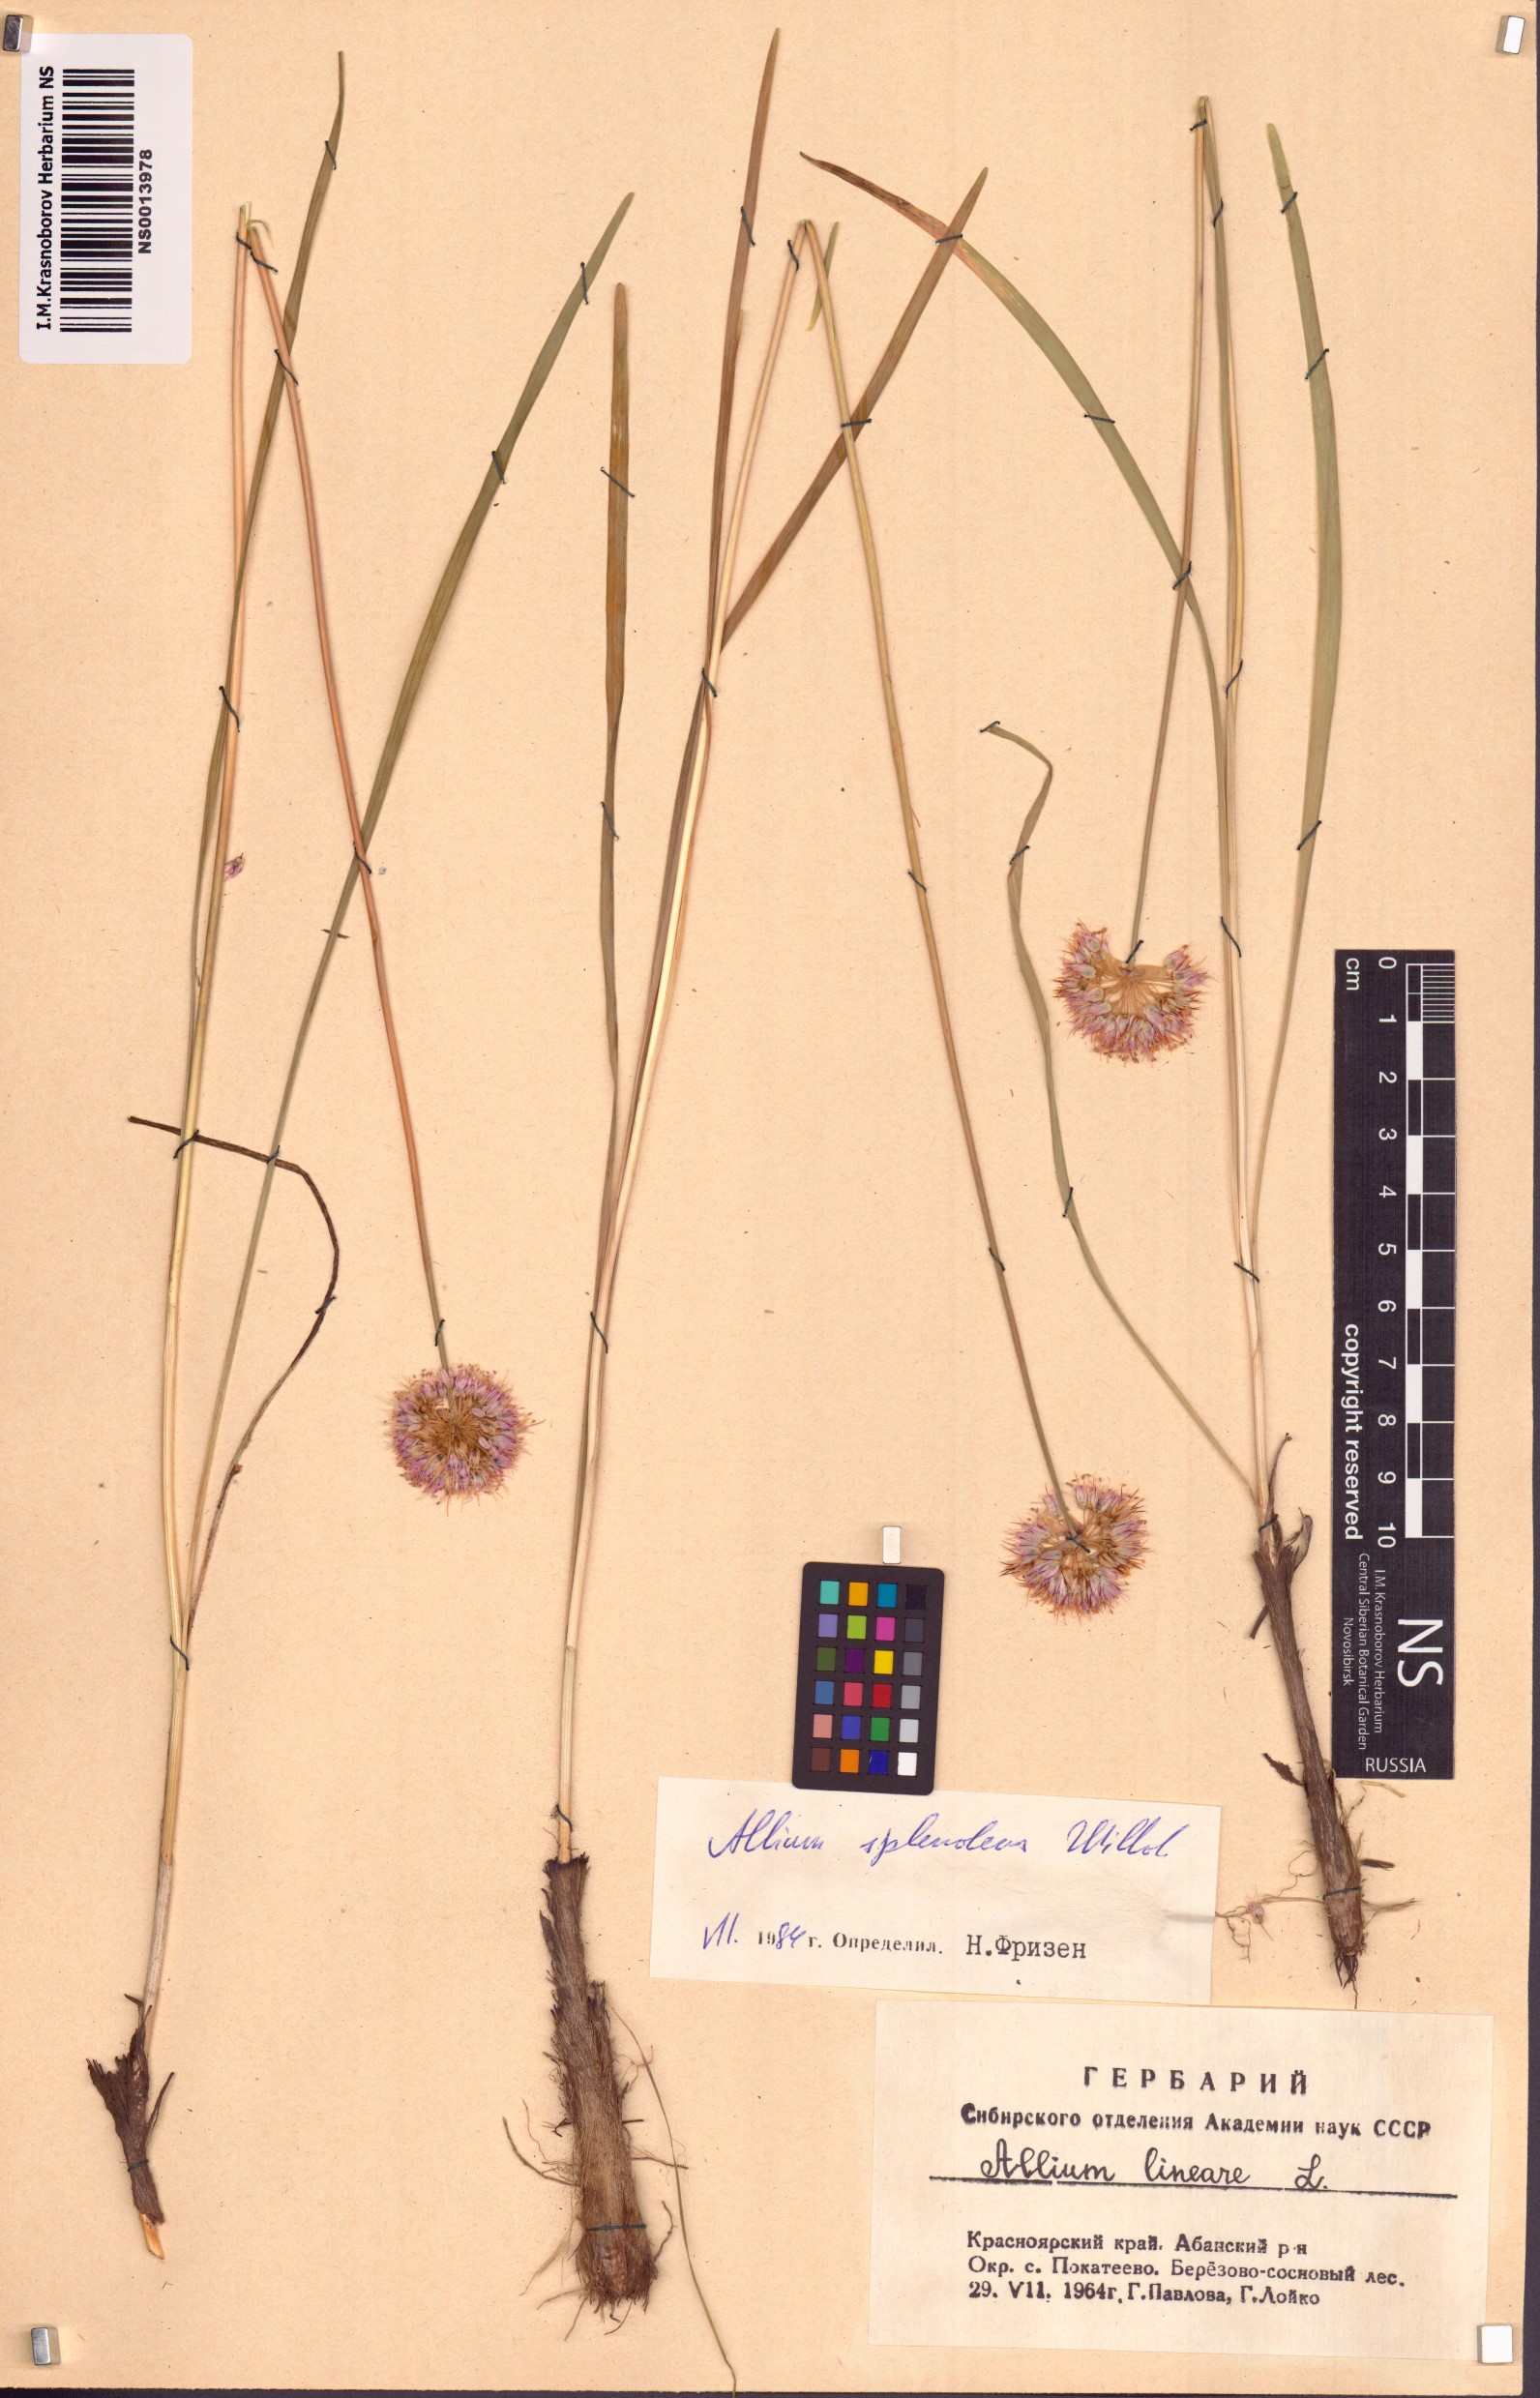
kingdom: Plantae
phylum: Tracheophyta
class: Liliopsida
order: Asparagales
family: Amaryllidaceae
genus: Allium
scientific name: Allium splendens
